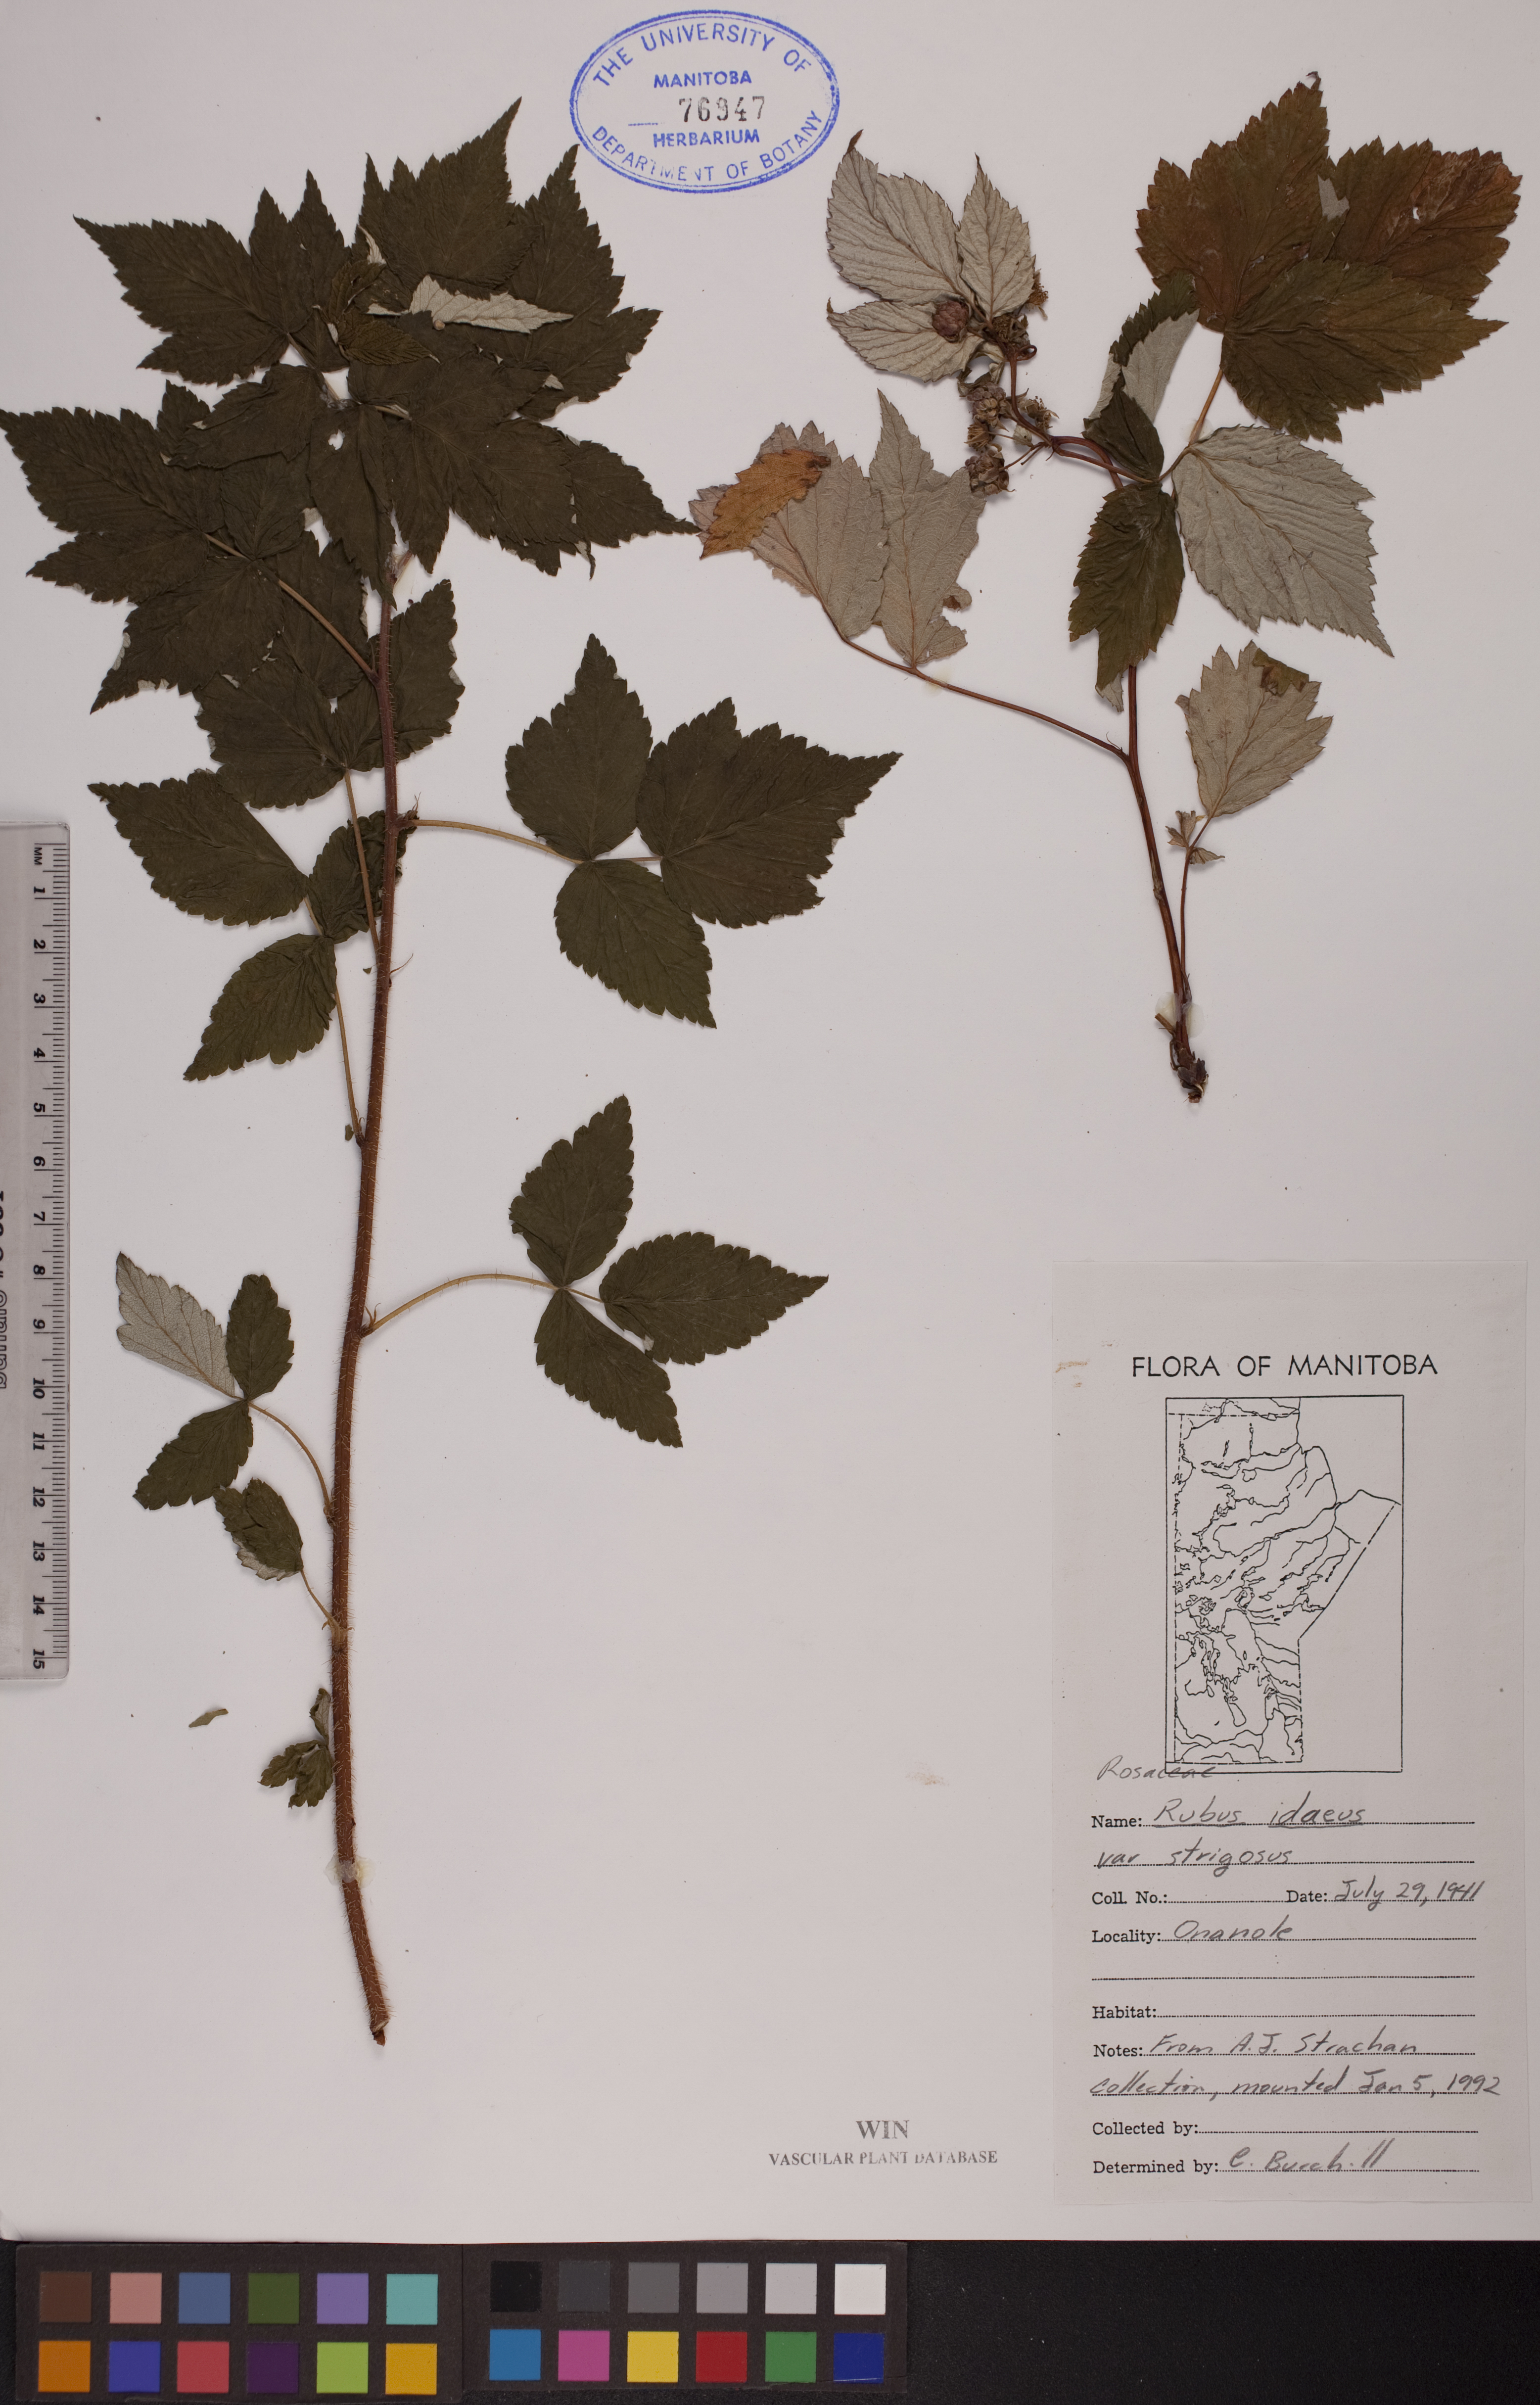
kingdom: Plantae
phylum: Tracheophyta
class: Magnoliopsida
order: Rosales
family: Rosaceae
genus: Rubus
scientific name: Rubus idaeus
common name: Raspberry
